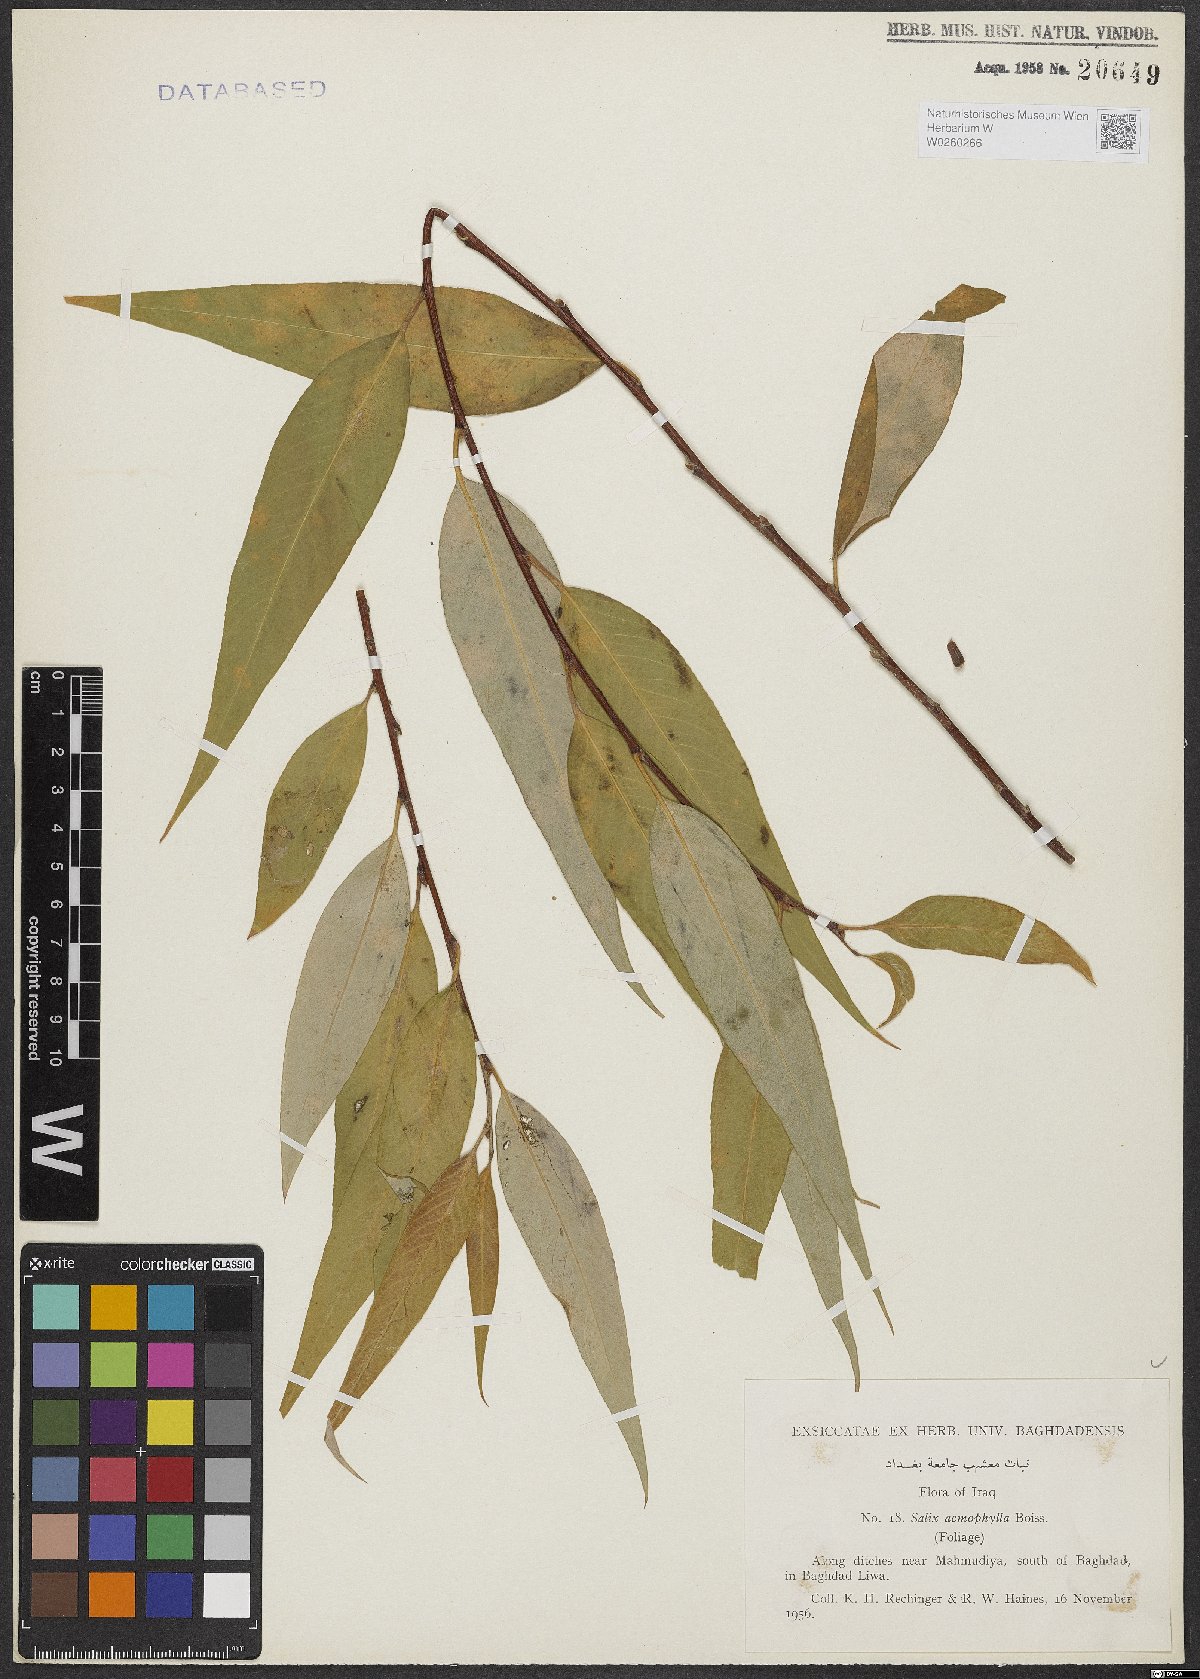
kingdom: Plantae
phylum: Tracheophyta
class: Magnoliopsida
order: Malpighiales
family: Salicaceae
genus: Salix
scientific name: Salix acmophylla
